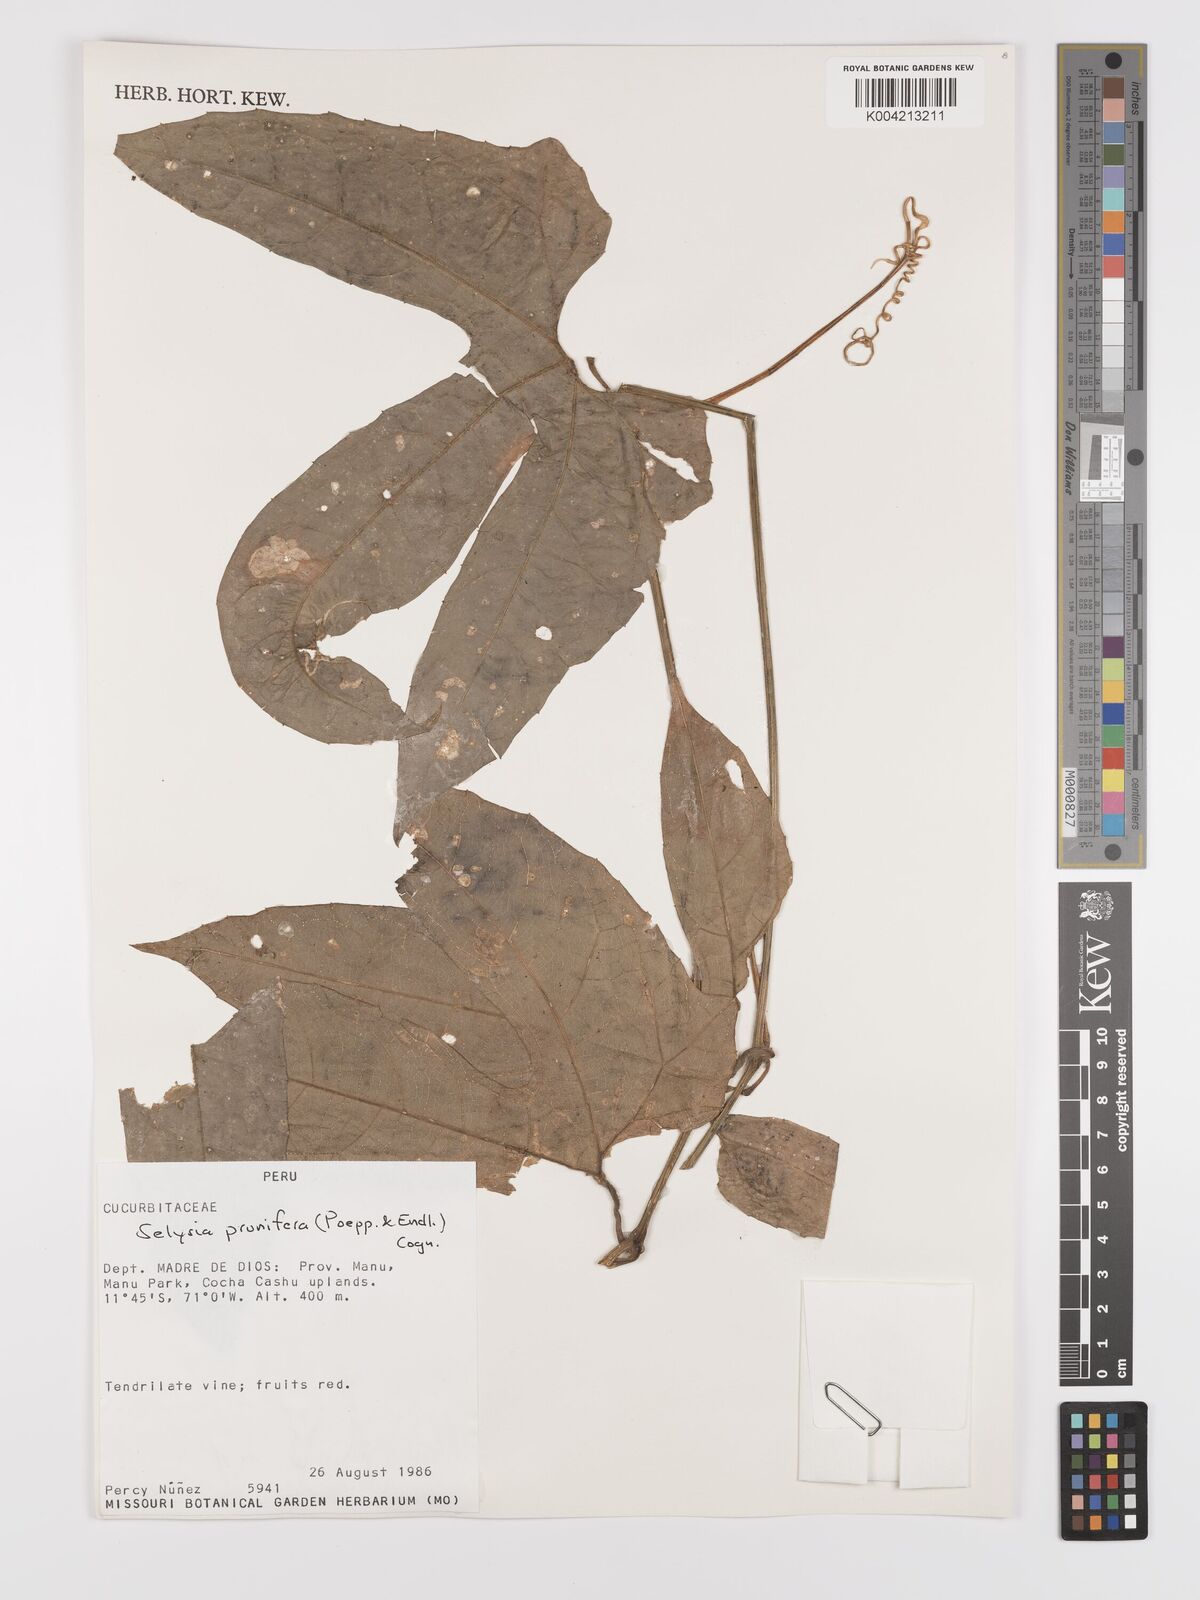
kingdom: Plantae
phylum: Tracheophyta
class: Magnoliopsida
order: Cucurbitales
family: Cucurbitaceae
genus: Cayaponia
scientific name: Cayaponia prunifera
